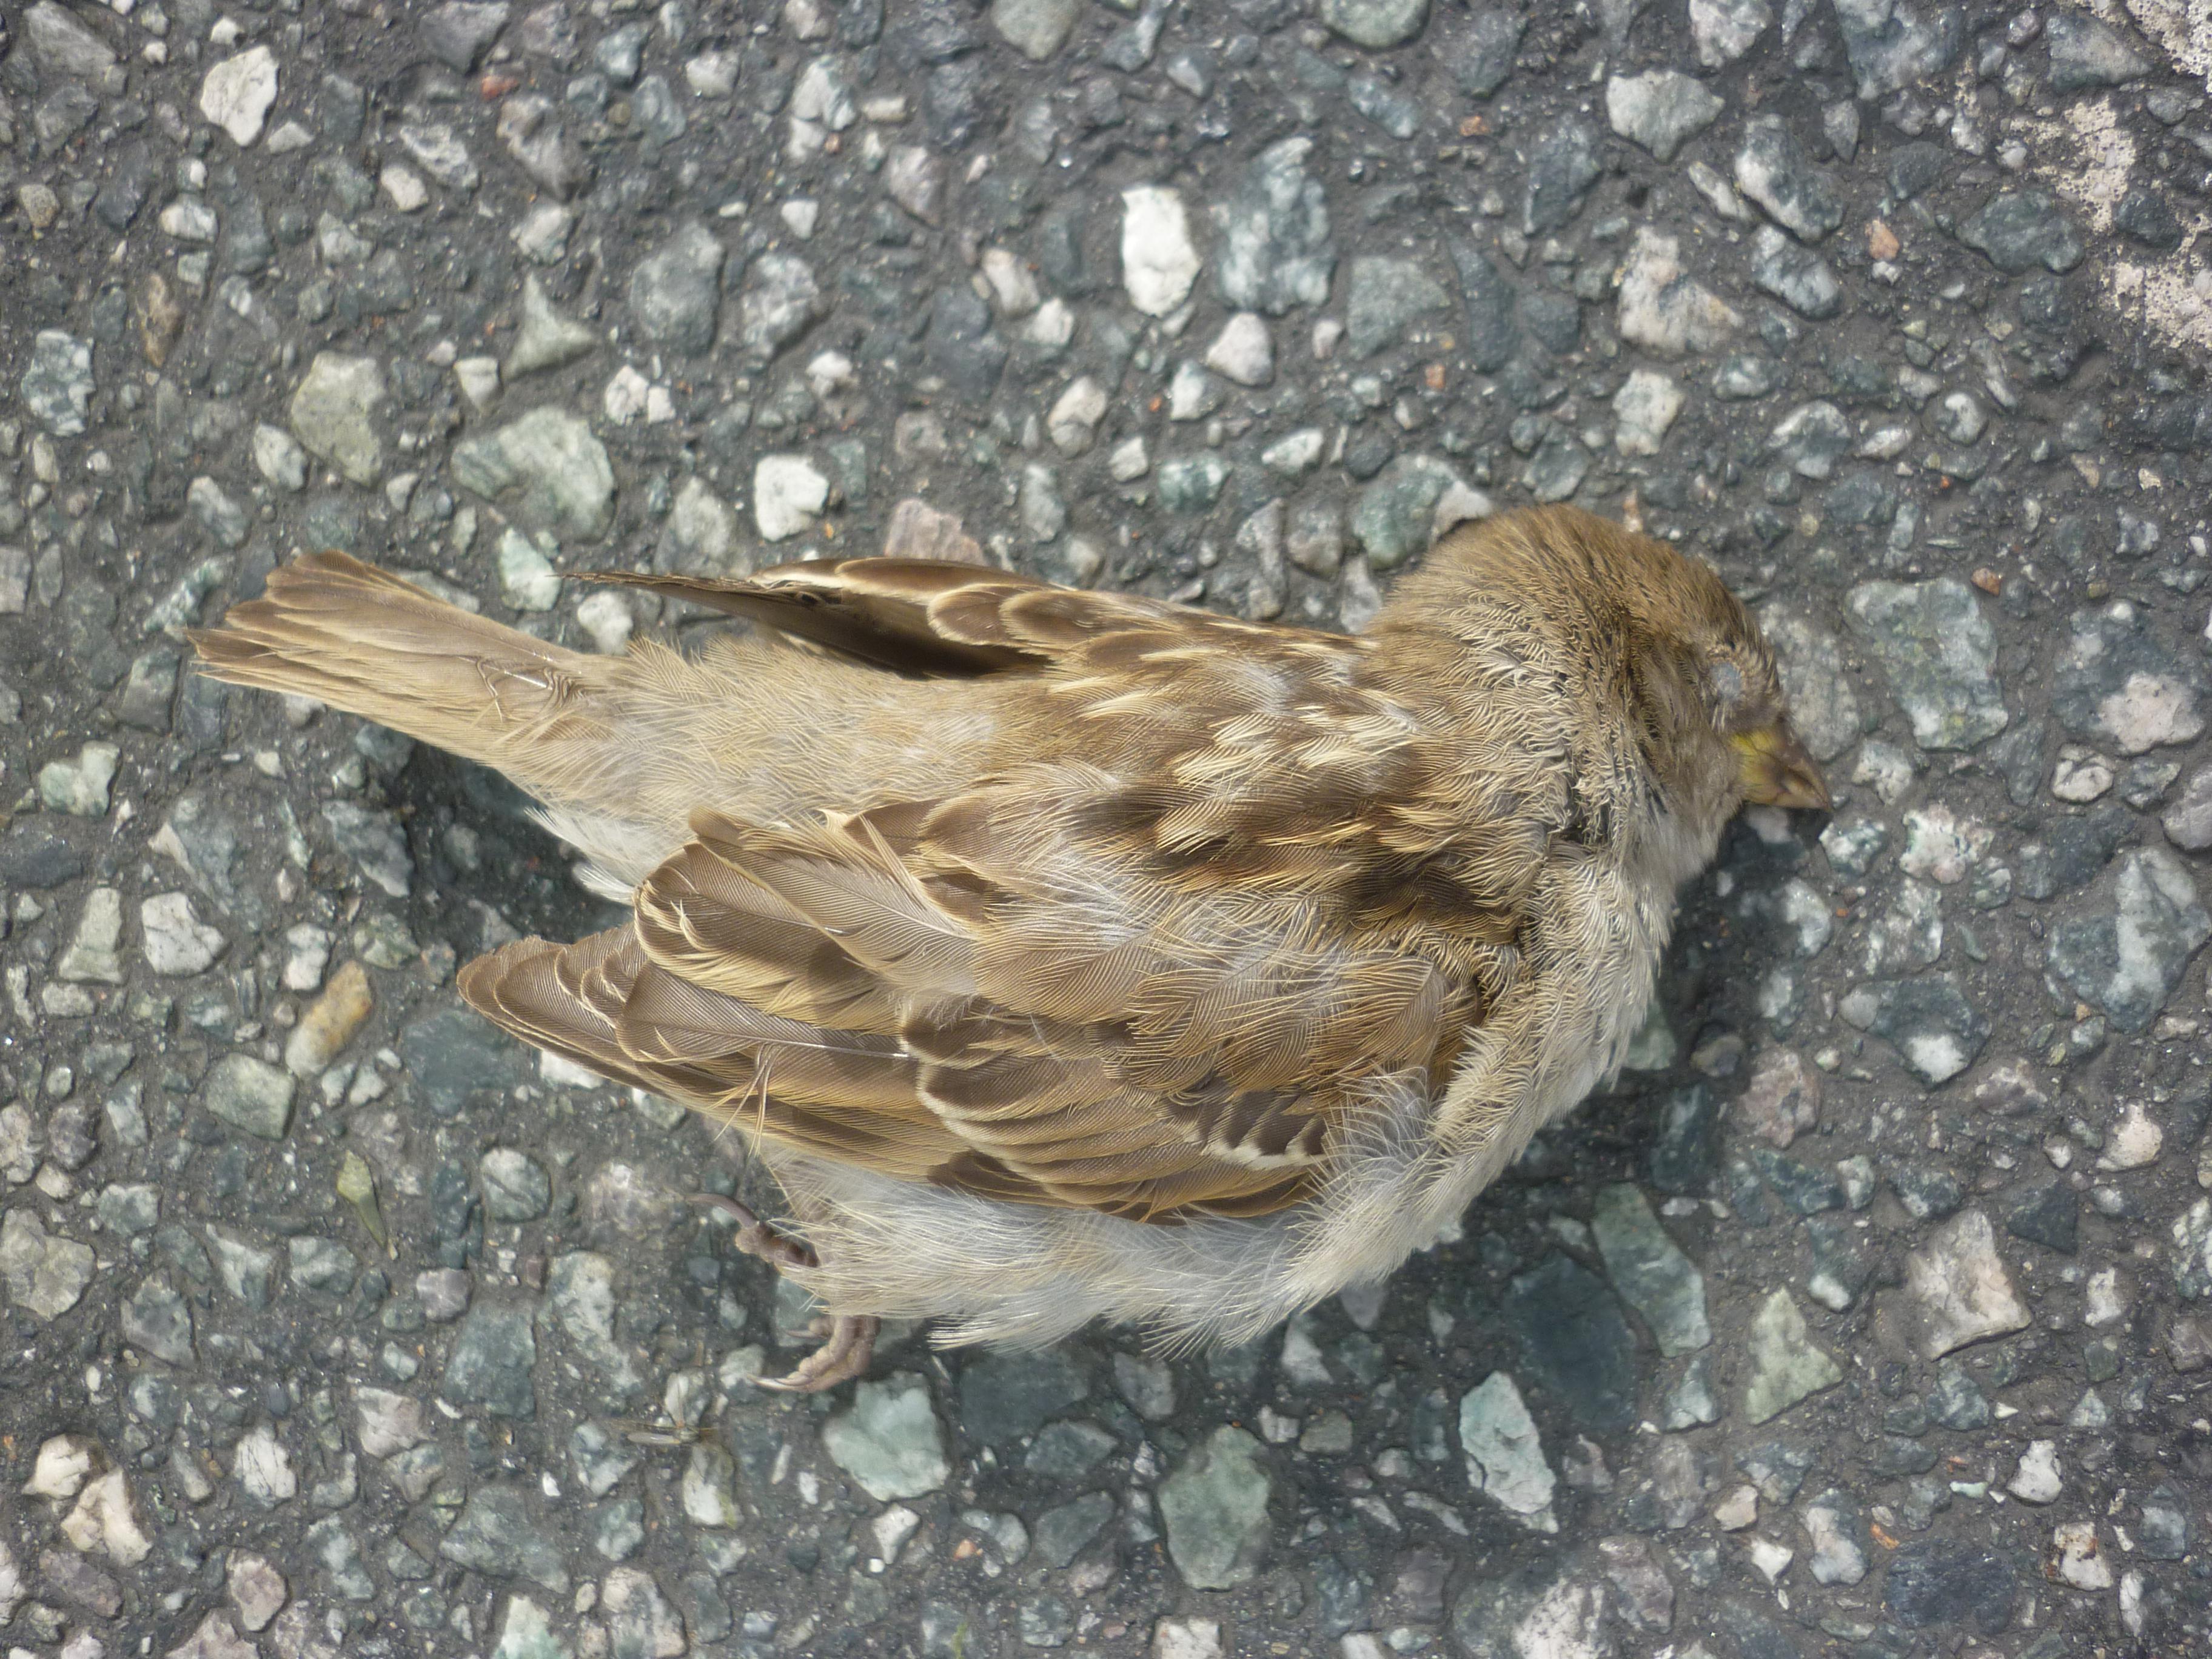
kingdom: Animalia
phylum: Chordata
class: Aves
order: Passeriformes
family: Passeridae
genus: Passer
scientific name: Passer domesticus
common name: House sparrow
